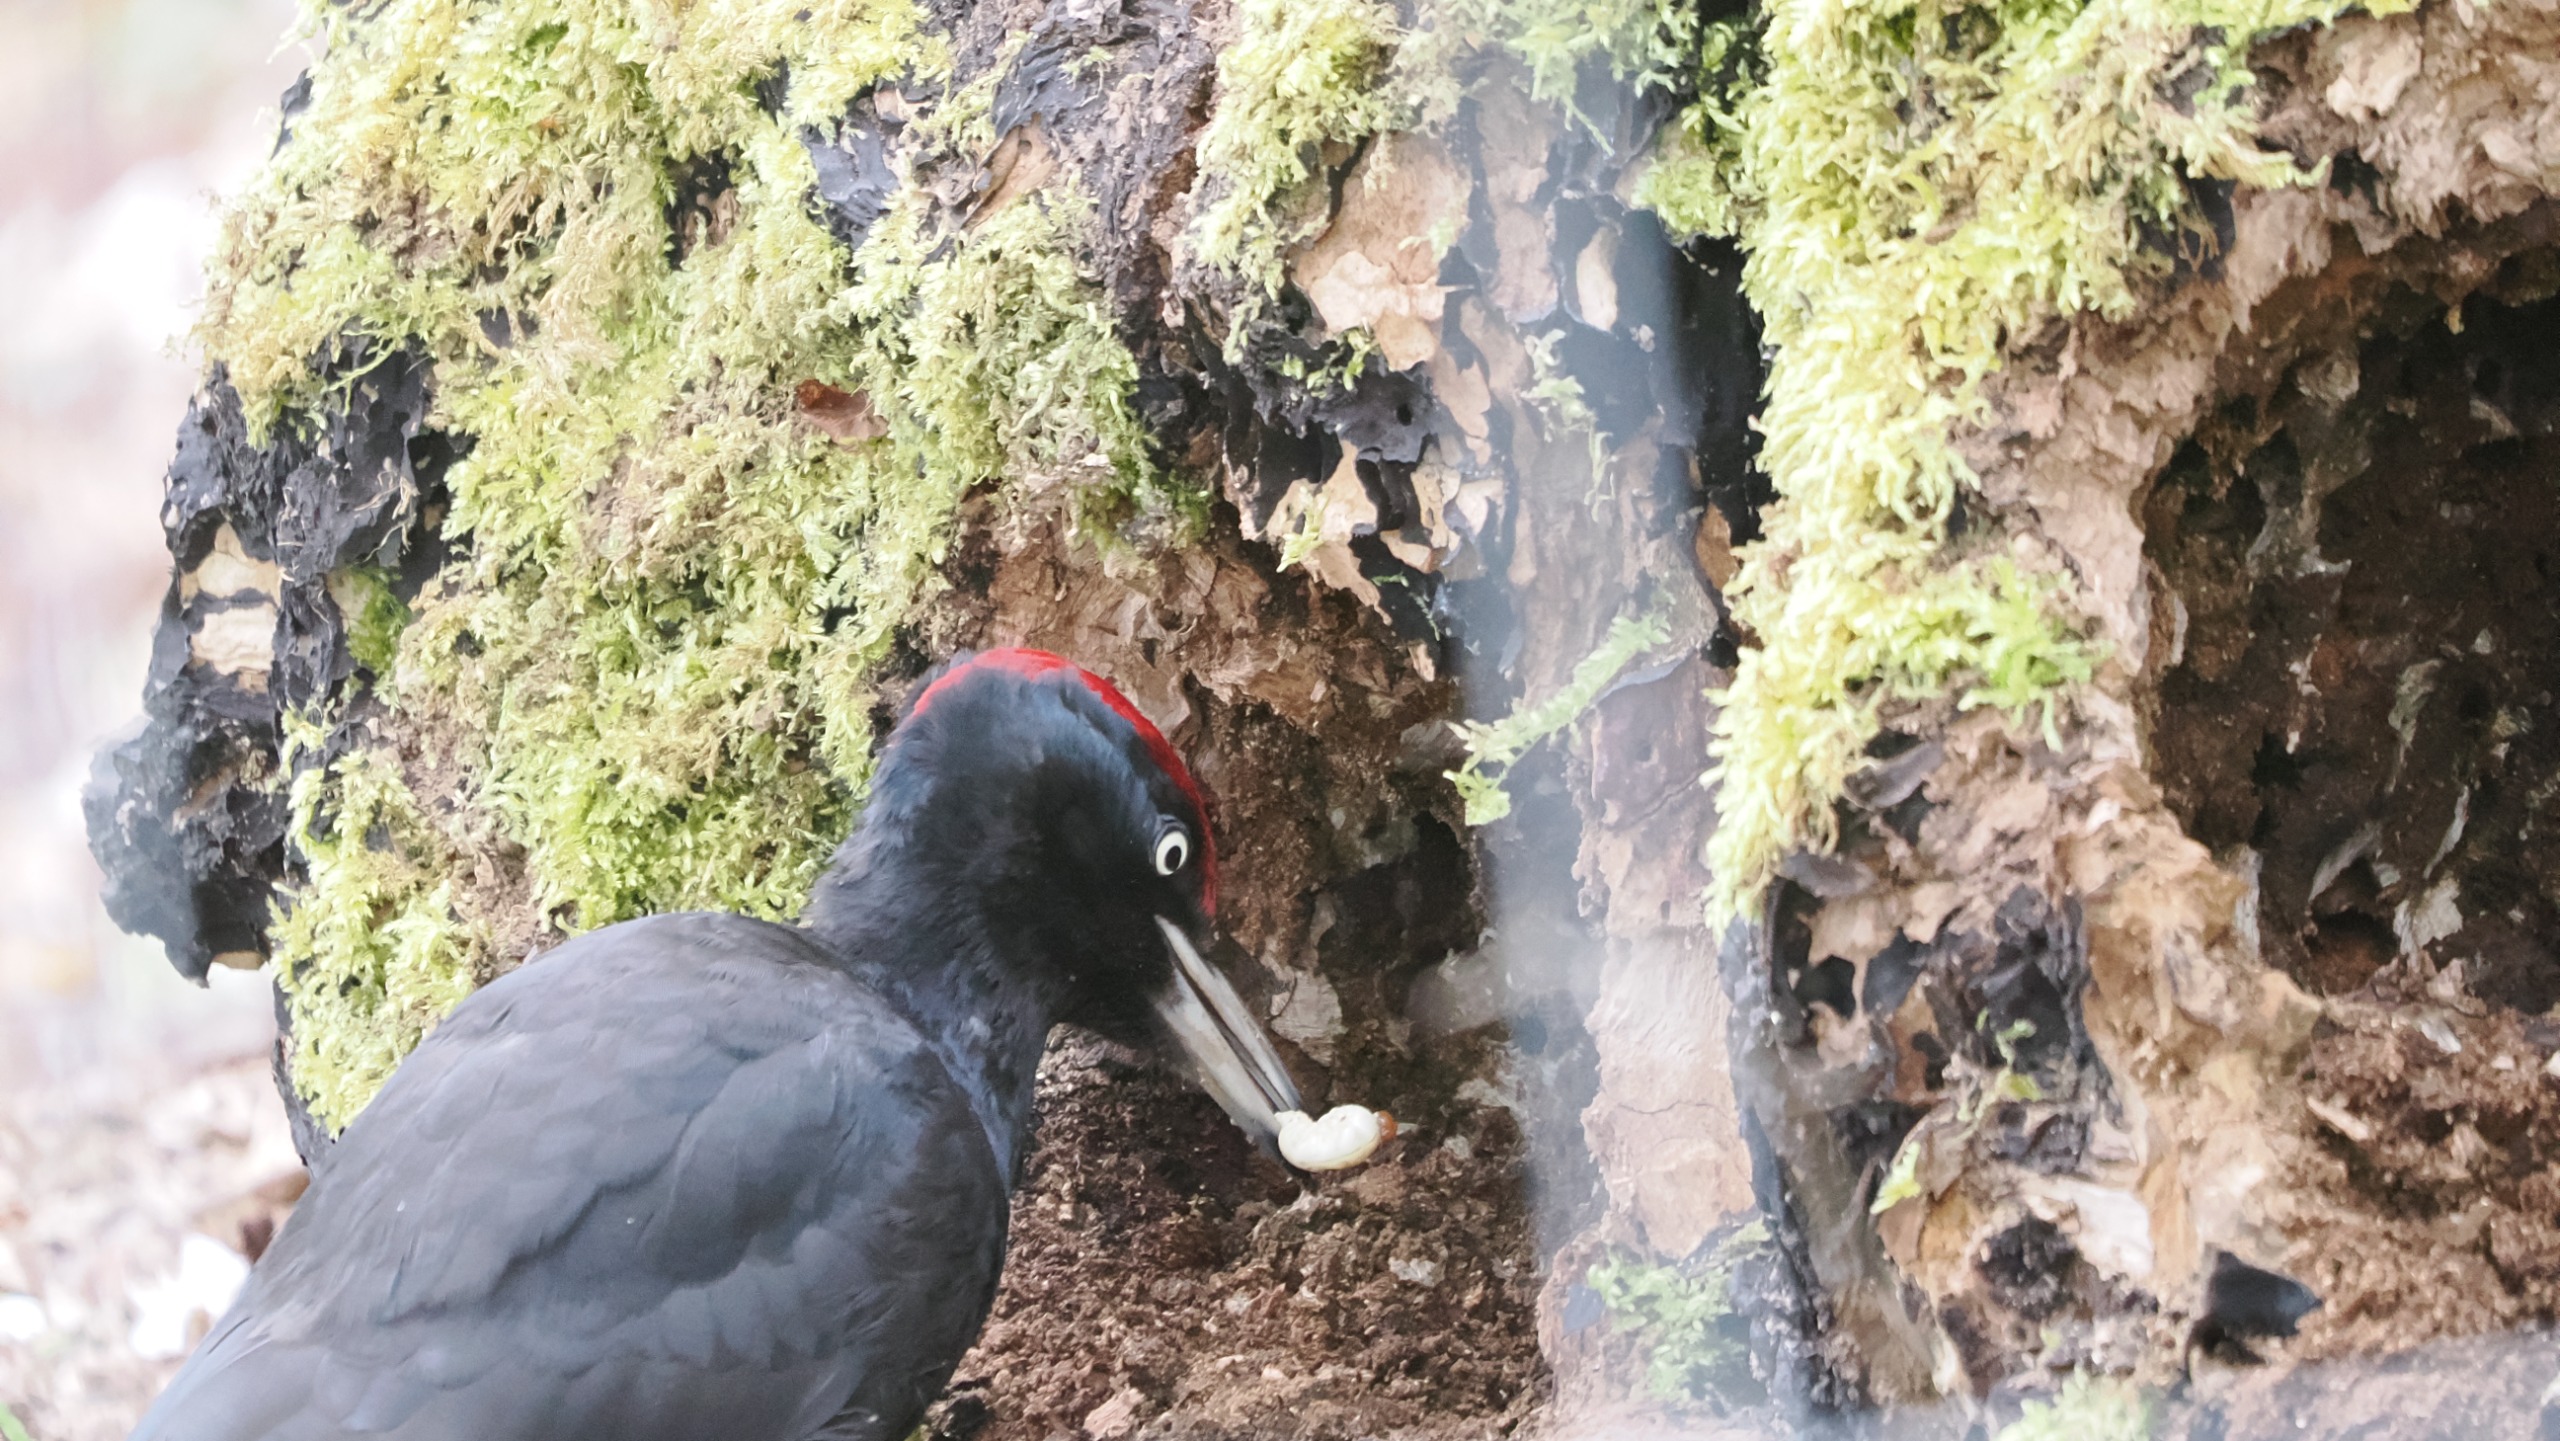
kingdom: Animalia
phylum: Chordata
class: Aves
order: Piciformes
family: Picidae
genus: Dryocopus
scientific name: Dryocopus martius
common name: Sortspætte
